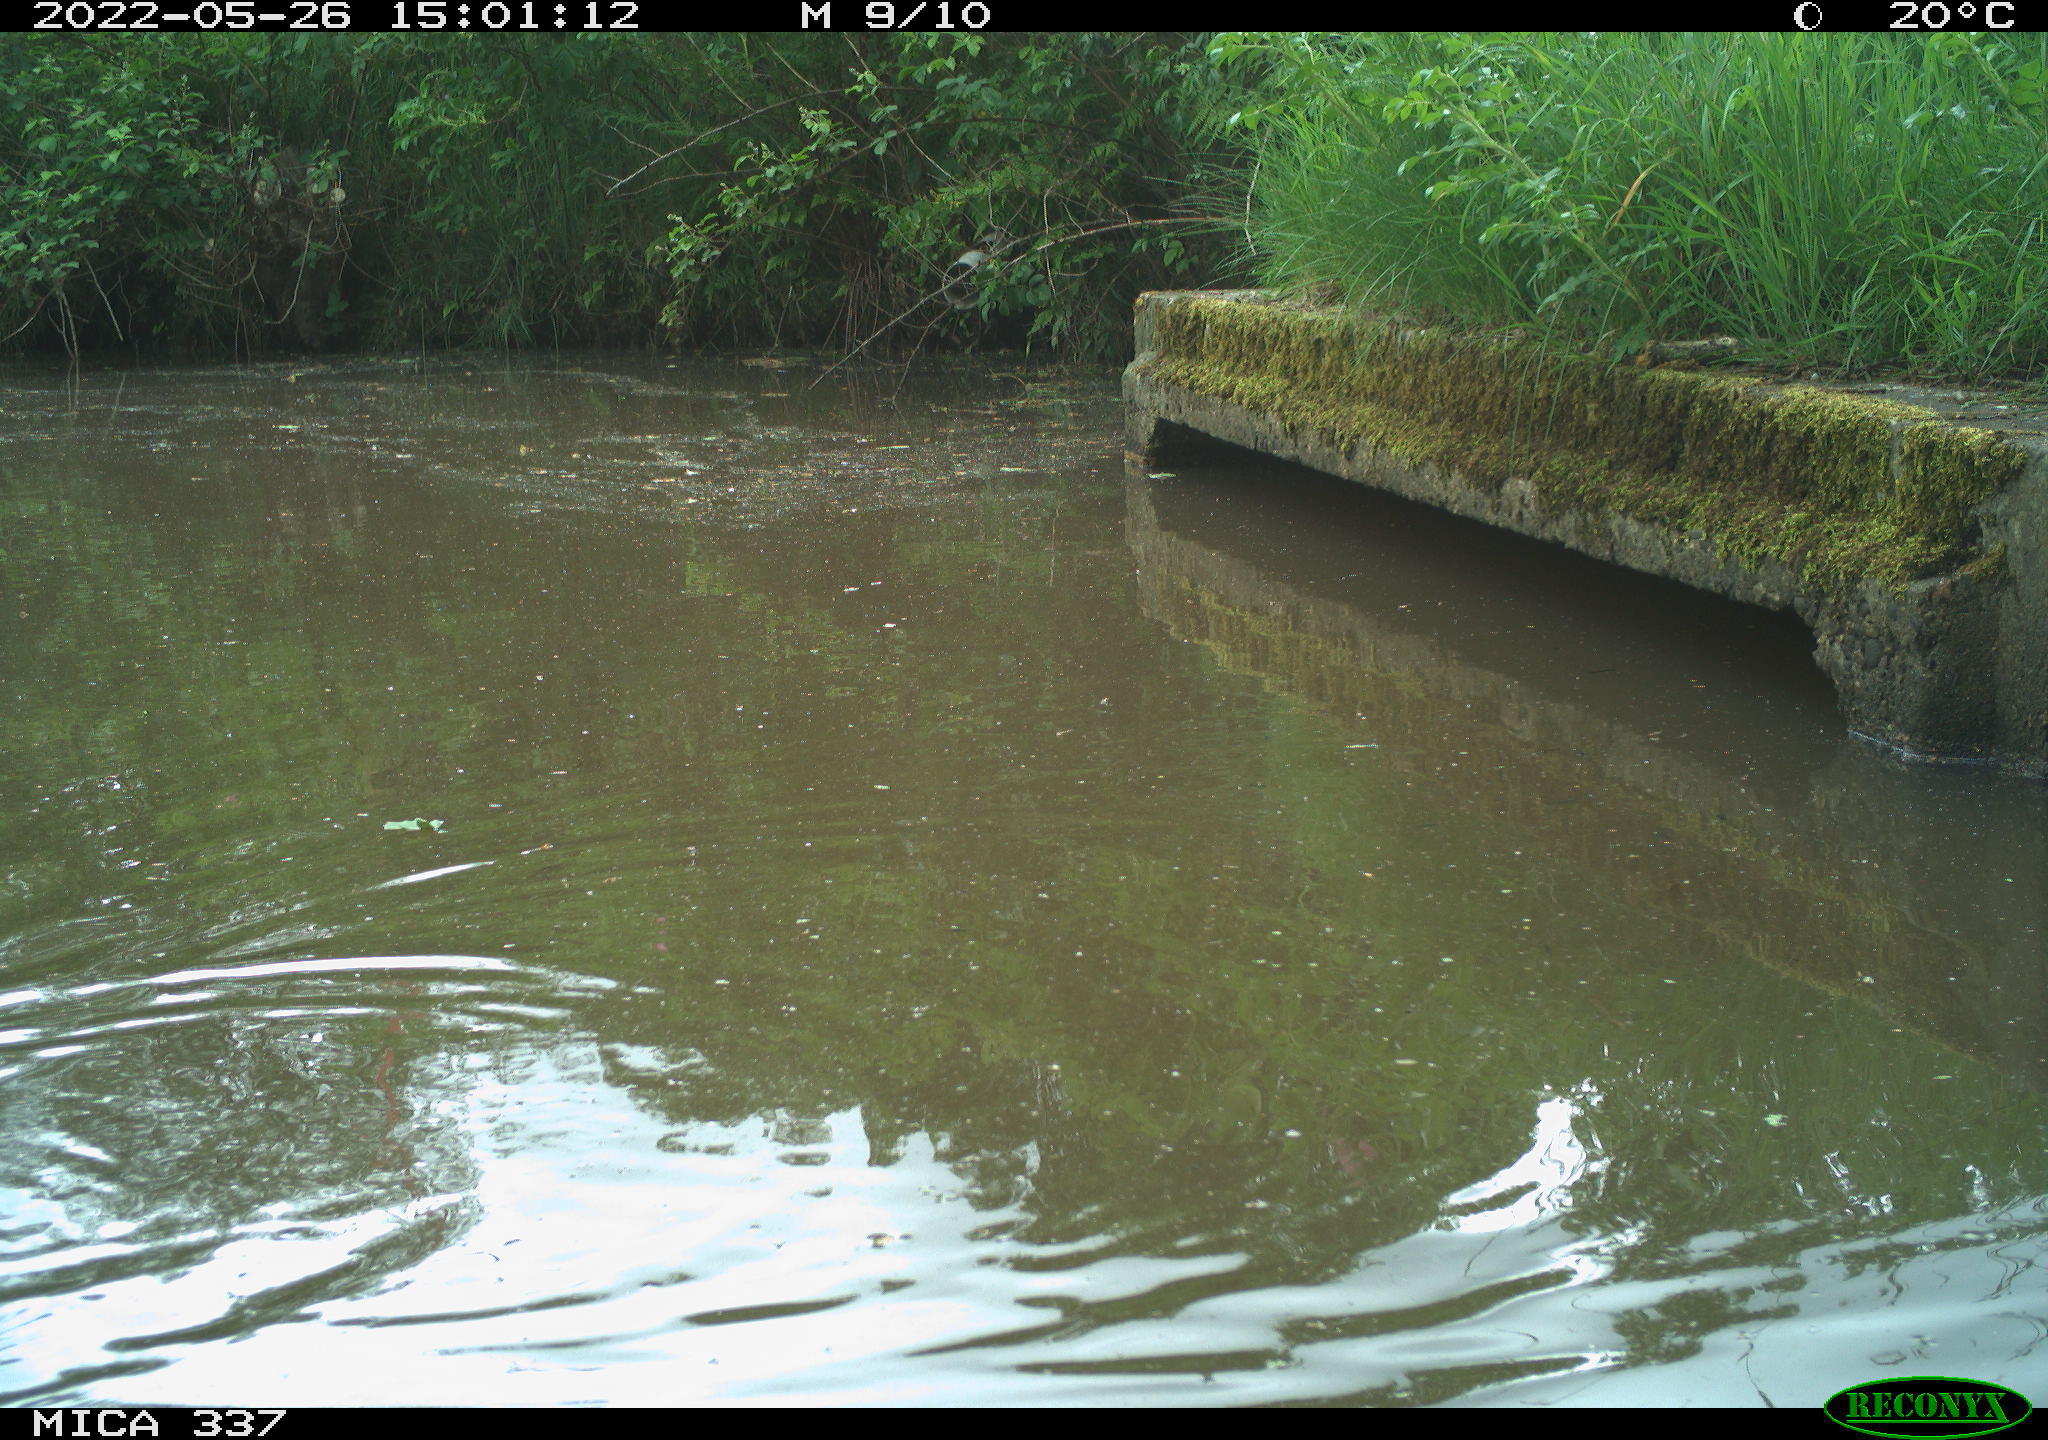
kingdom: Animalia
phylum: Chordata
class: Aves
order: Gruiformes
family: Rallidae
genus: Gallinula
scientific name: Gallinula chloropus
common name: Common moorhen
